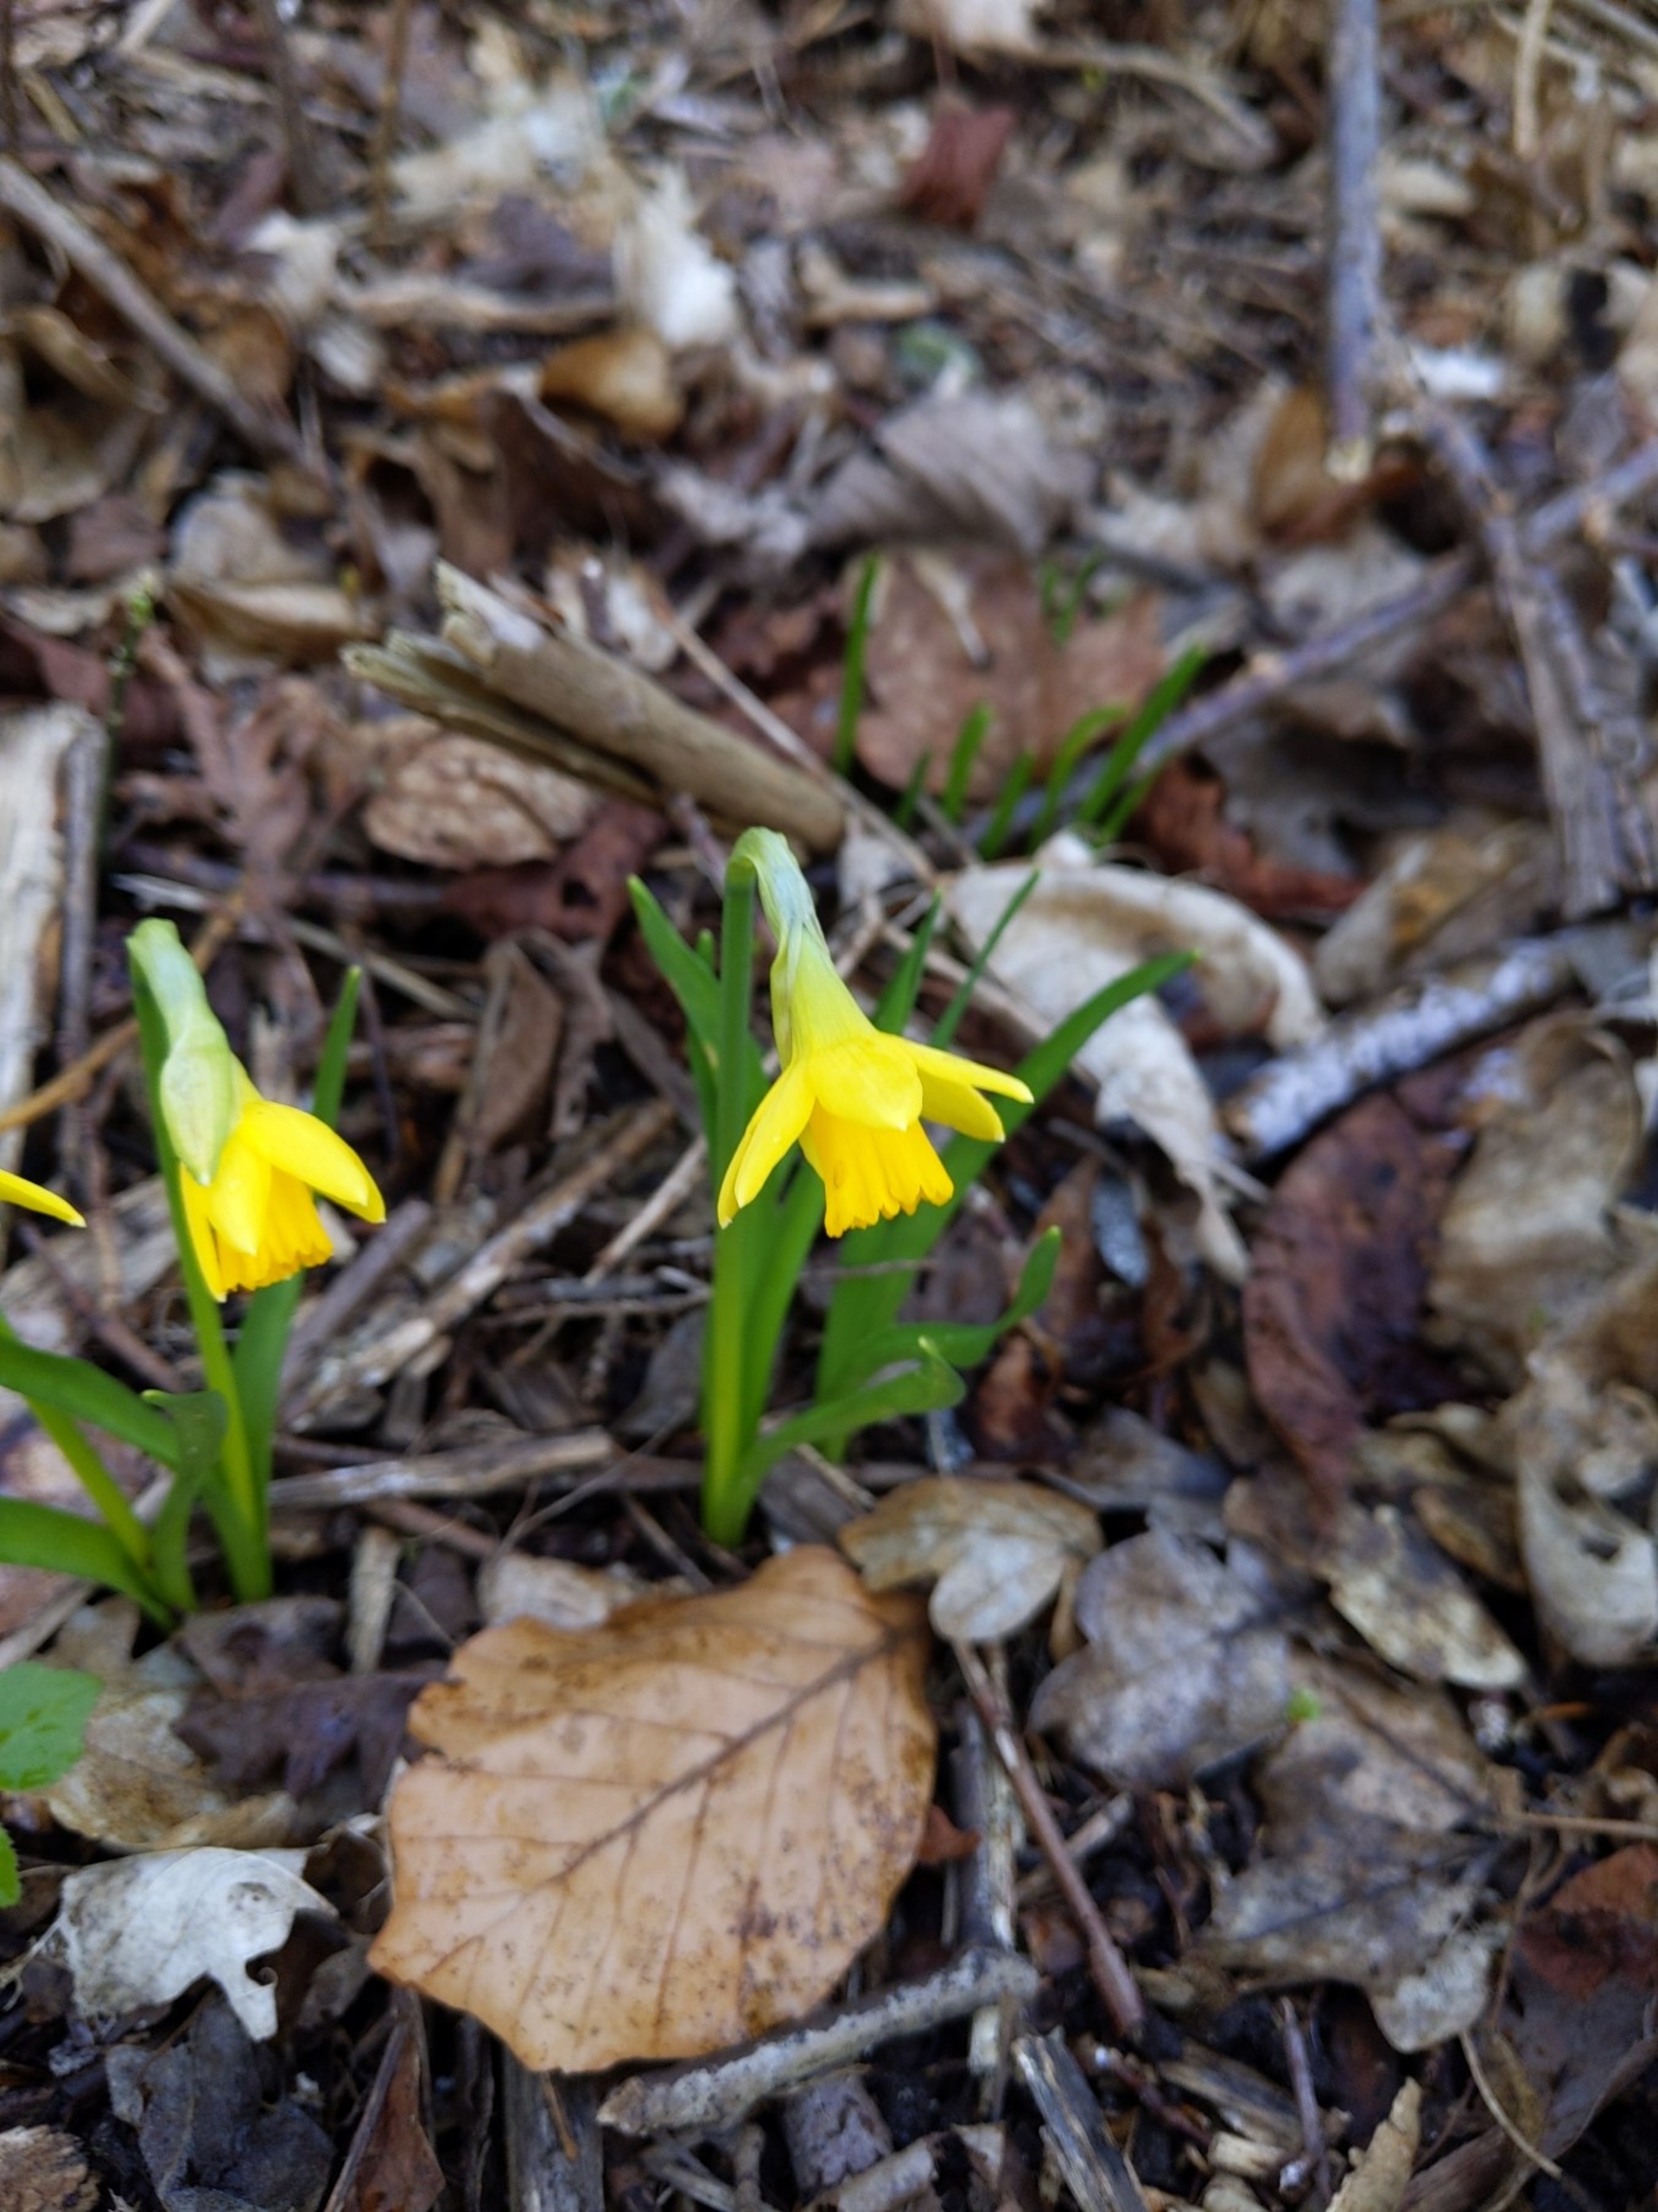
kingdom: Plantae
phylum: Tracheophyta
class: Liliopsida
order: Asparagales
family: Amaryllidaceae
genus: Narcissus
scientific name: Narcissus cyclazetta
